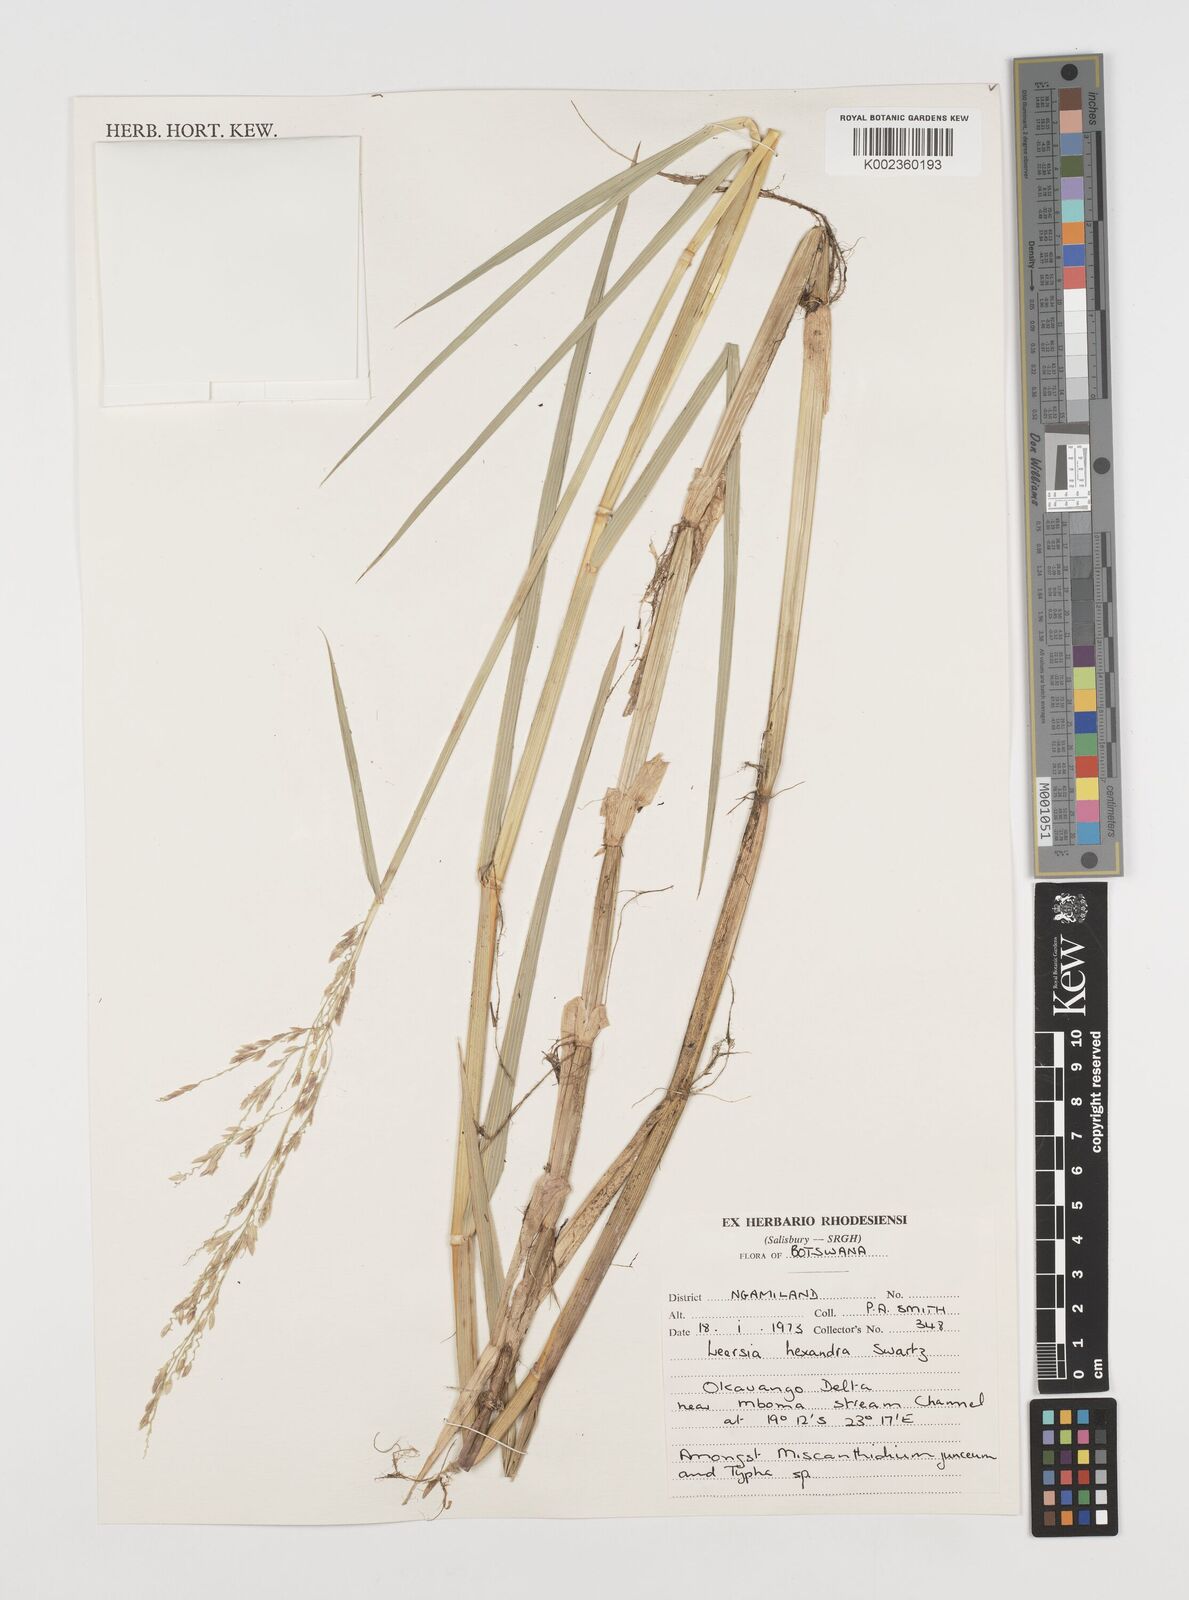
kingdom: Plantae
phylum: Tracheophyta
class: Liliopsida
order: Poales
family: Poaceae
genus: Leersia
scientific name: Leersia hexandra
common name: Southern cut grass
